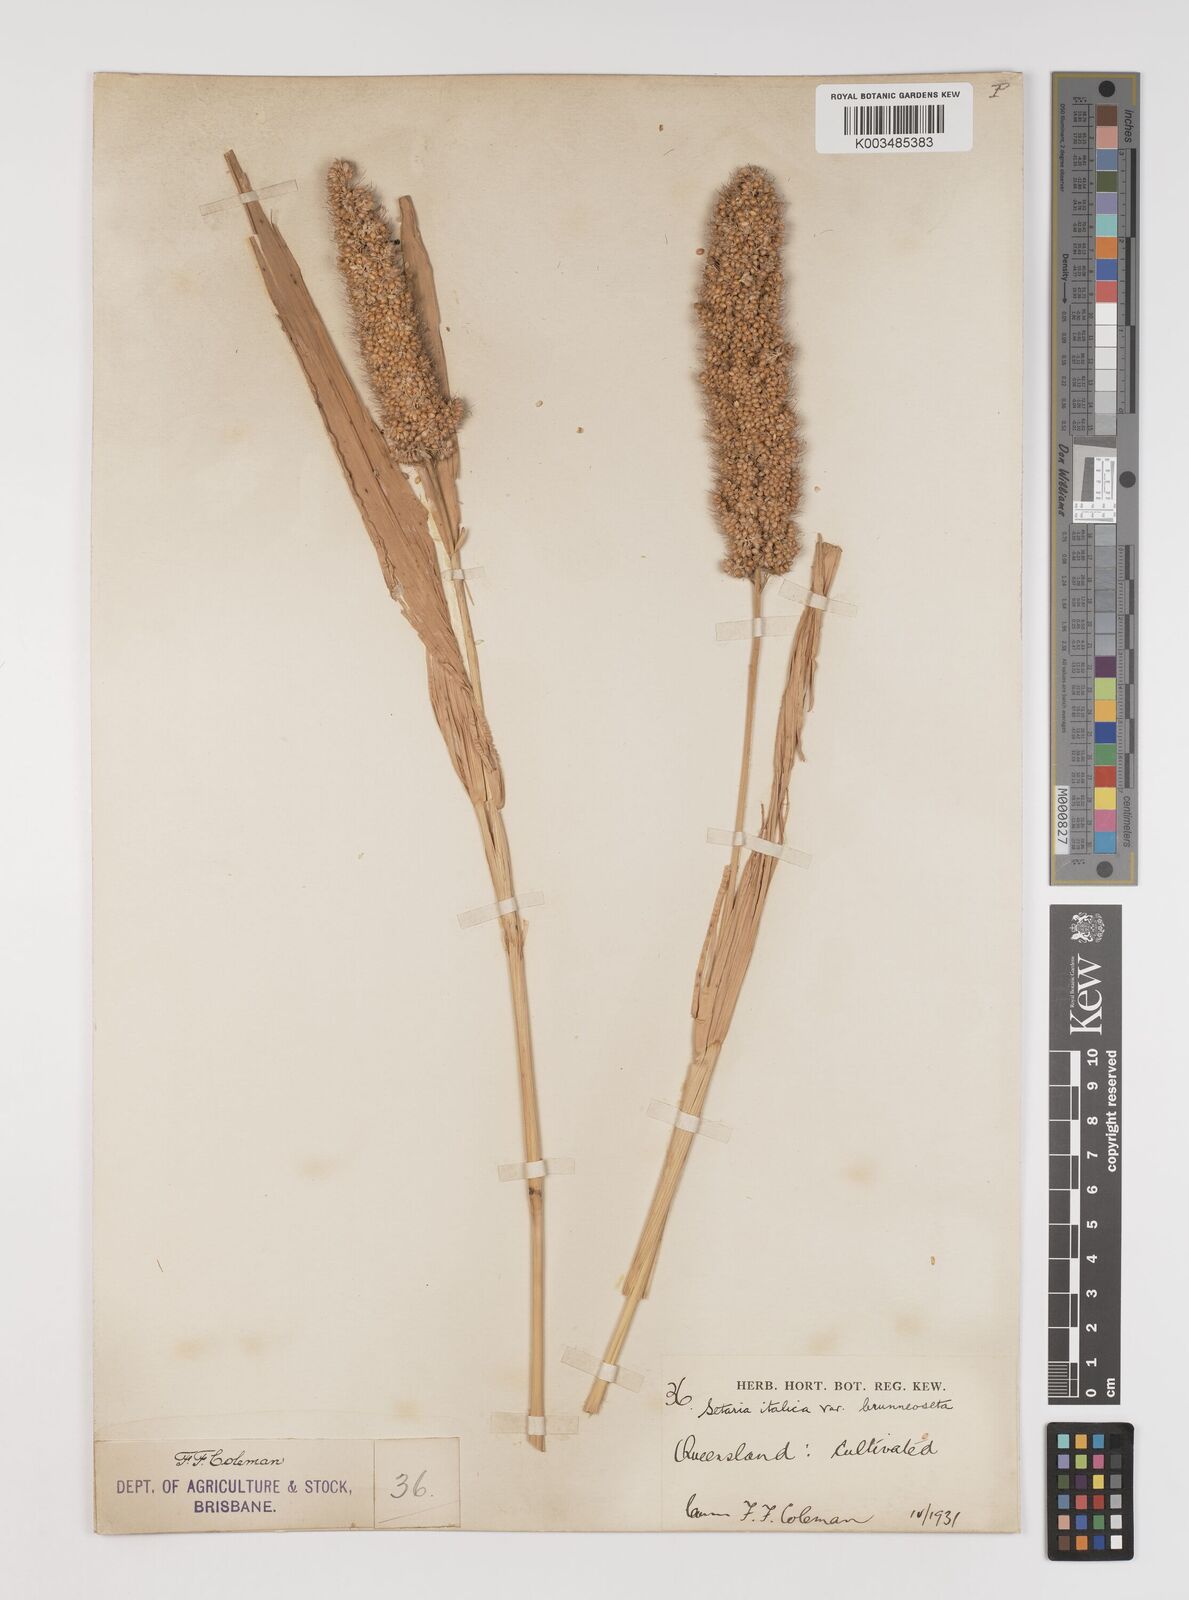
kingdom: Plantae
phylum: Tracheophyta
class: Liliopsida
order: Poales
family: Poaceae
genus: Setaria
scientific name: Setaria italica
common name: Foxtail bristle-grass
